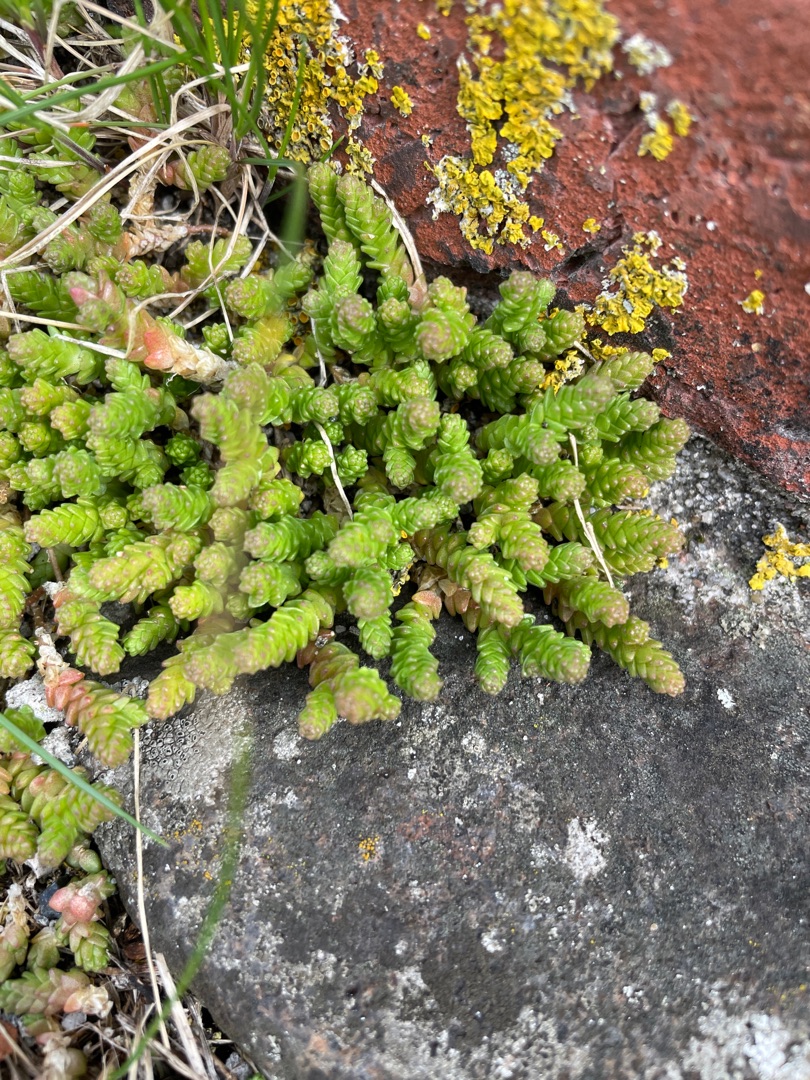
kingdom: Plantae
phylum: Tracheophyta
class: Magnoliopsida
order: Saxifragales
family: Crassulaceae
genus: Sedum
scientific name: Sedum acre
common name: Bidende stenurt
